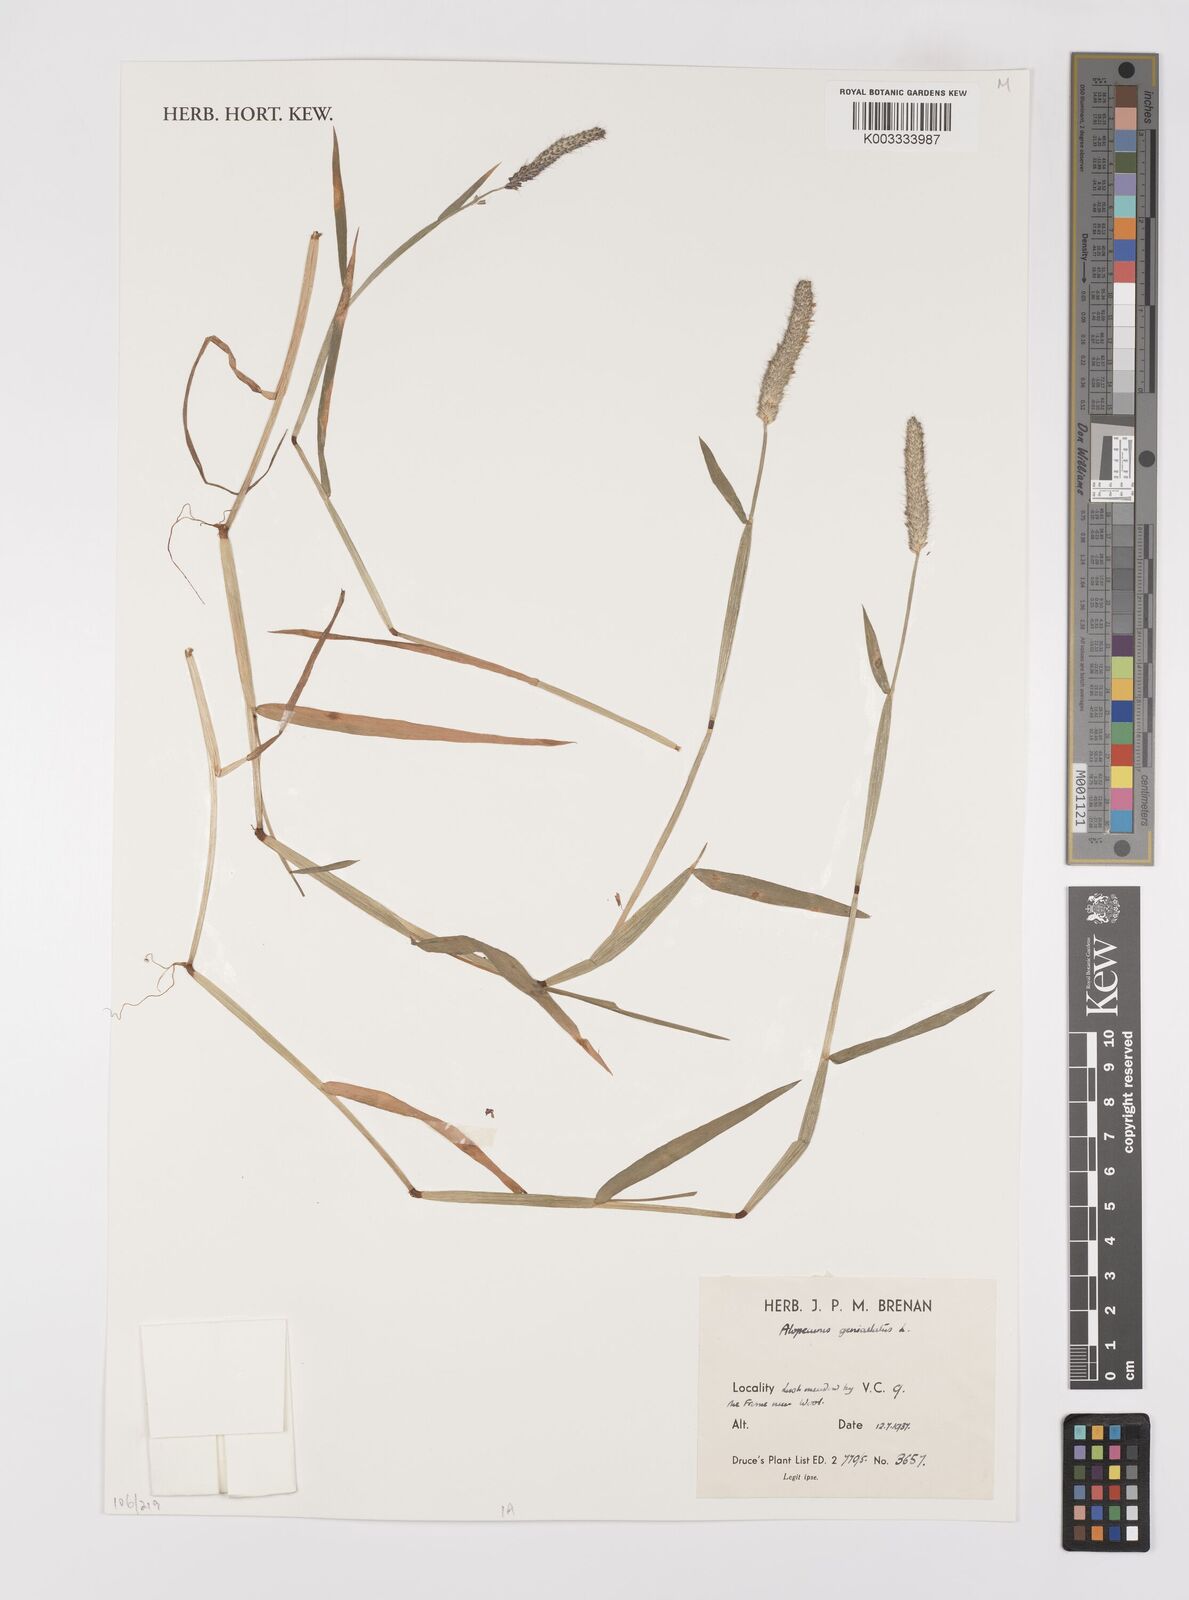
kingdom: Plantae
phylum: Tracheophyta
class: Liliopsida
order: Poales
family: Poaceae
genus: Alopecurus
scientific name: Alopecurus geniculatus
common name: Water foxtail
